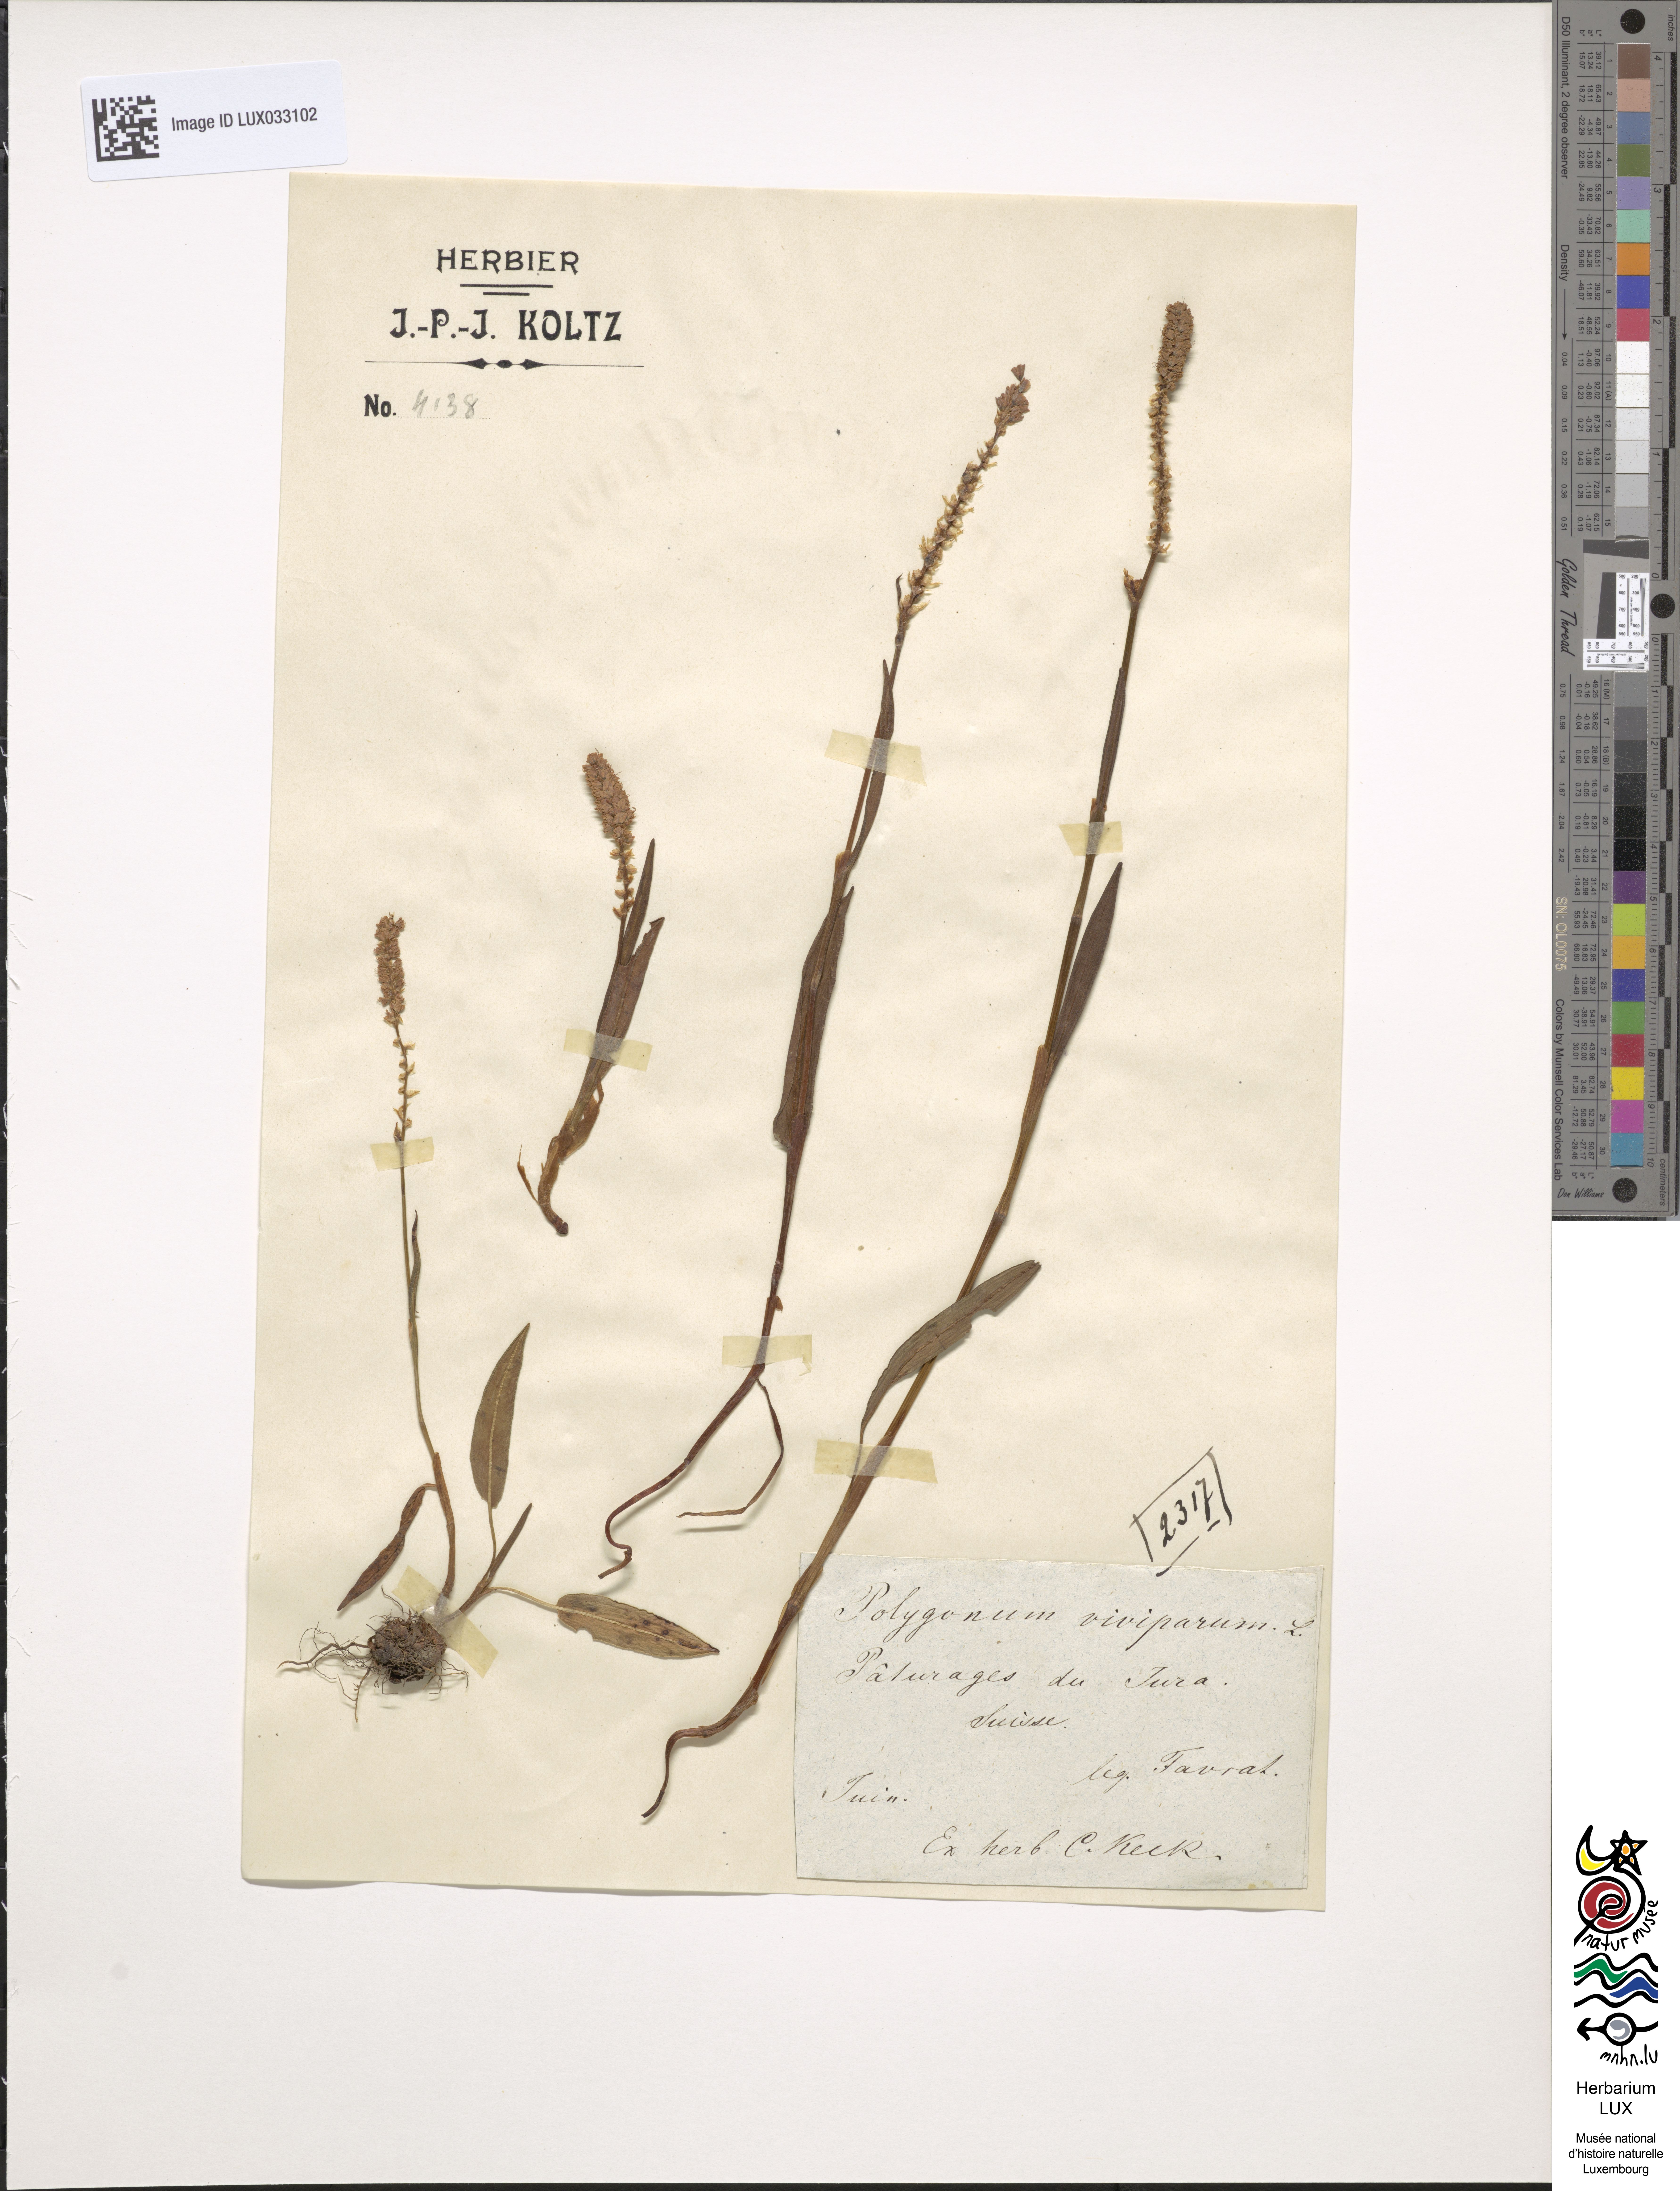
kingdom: Plantae
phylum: Tracheophyta
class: Magnoliopsida
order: Caryophyllales
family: Polygonaceae
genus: Bistorta
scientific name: Bistorta vivipara
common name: Alpine bistort
